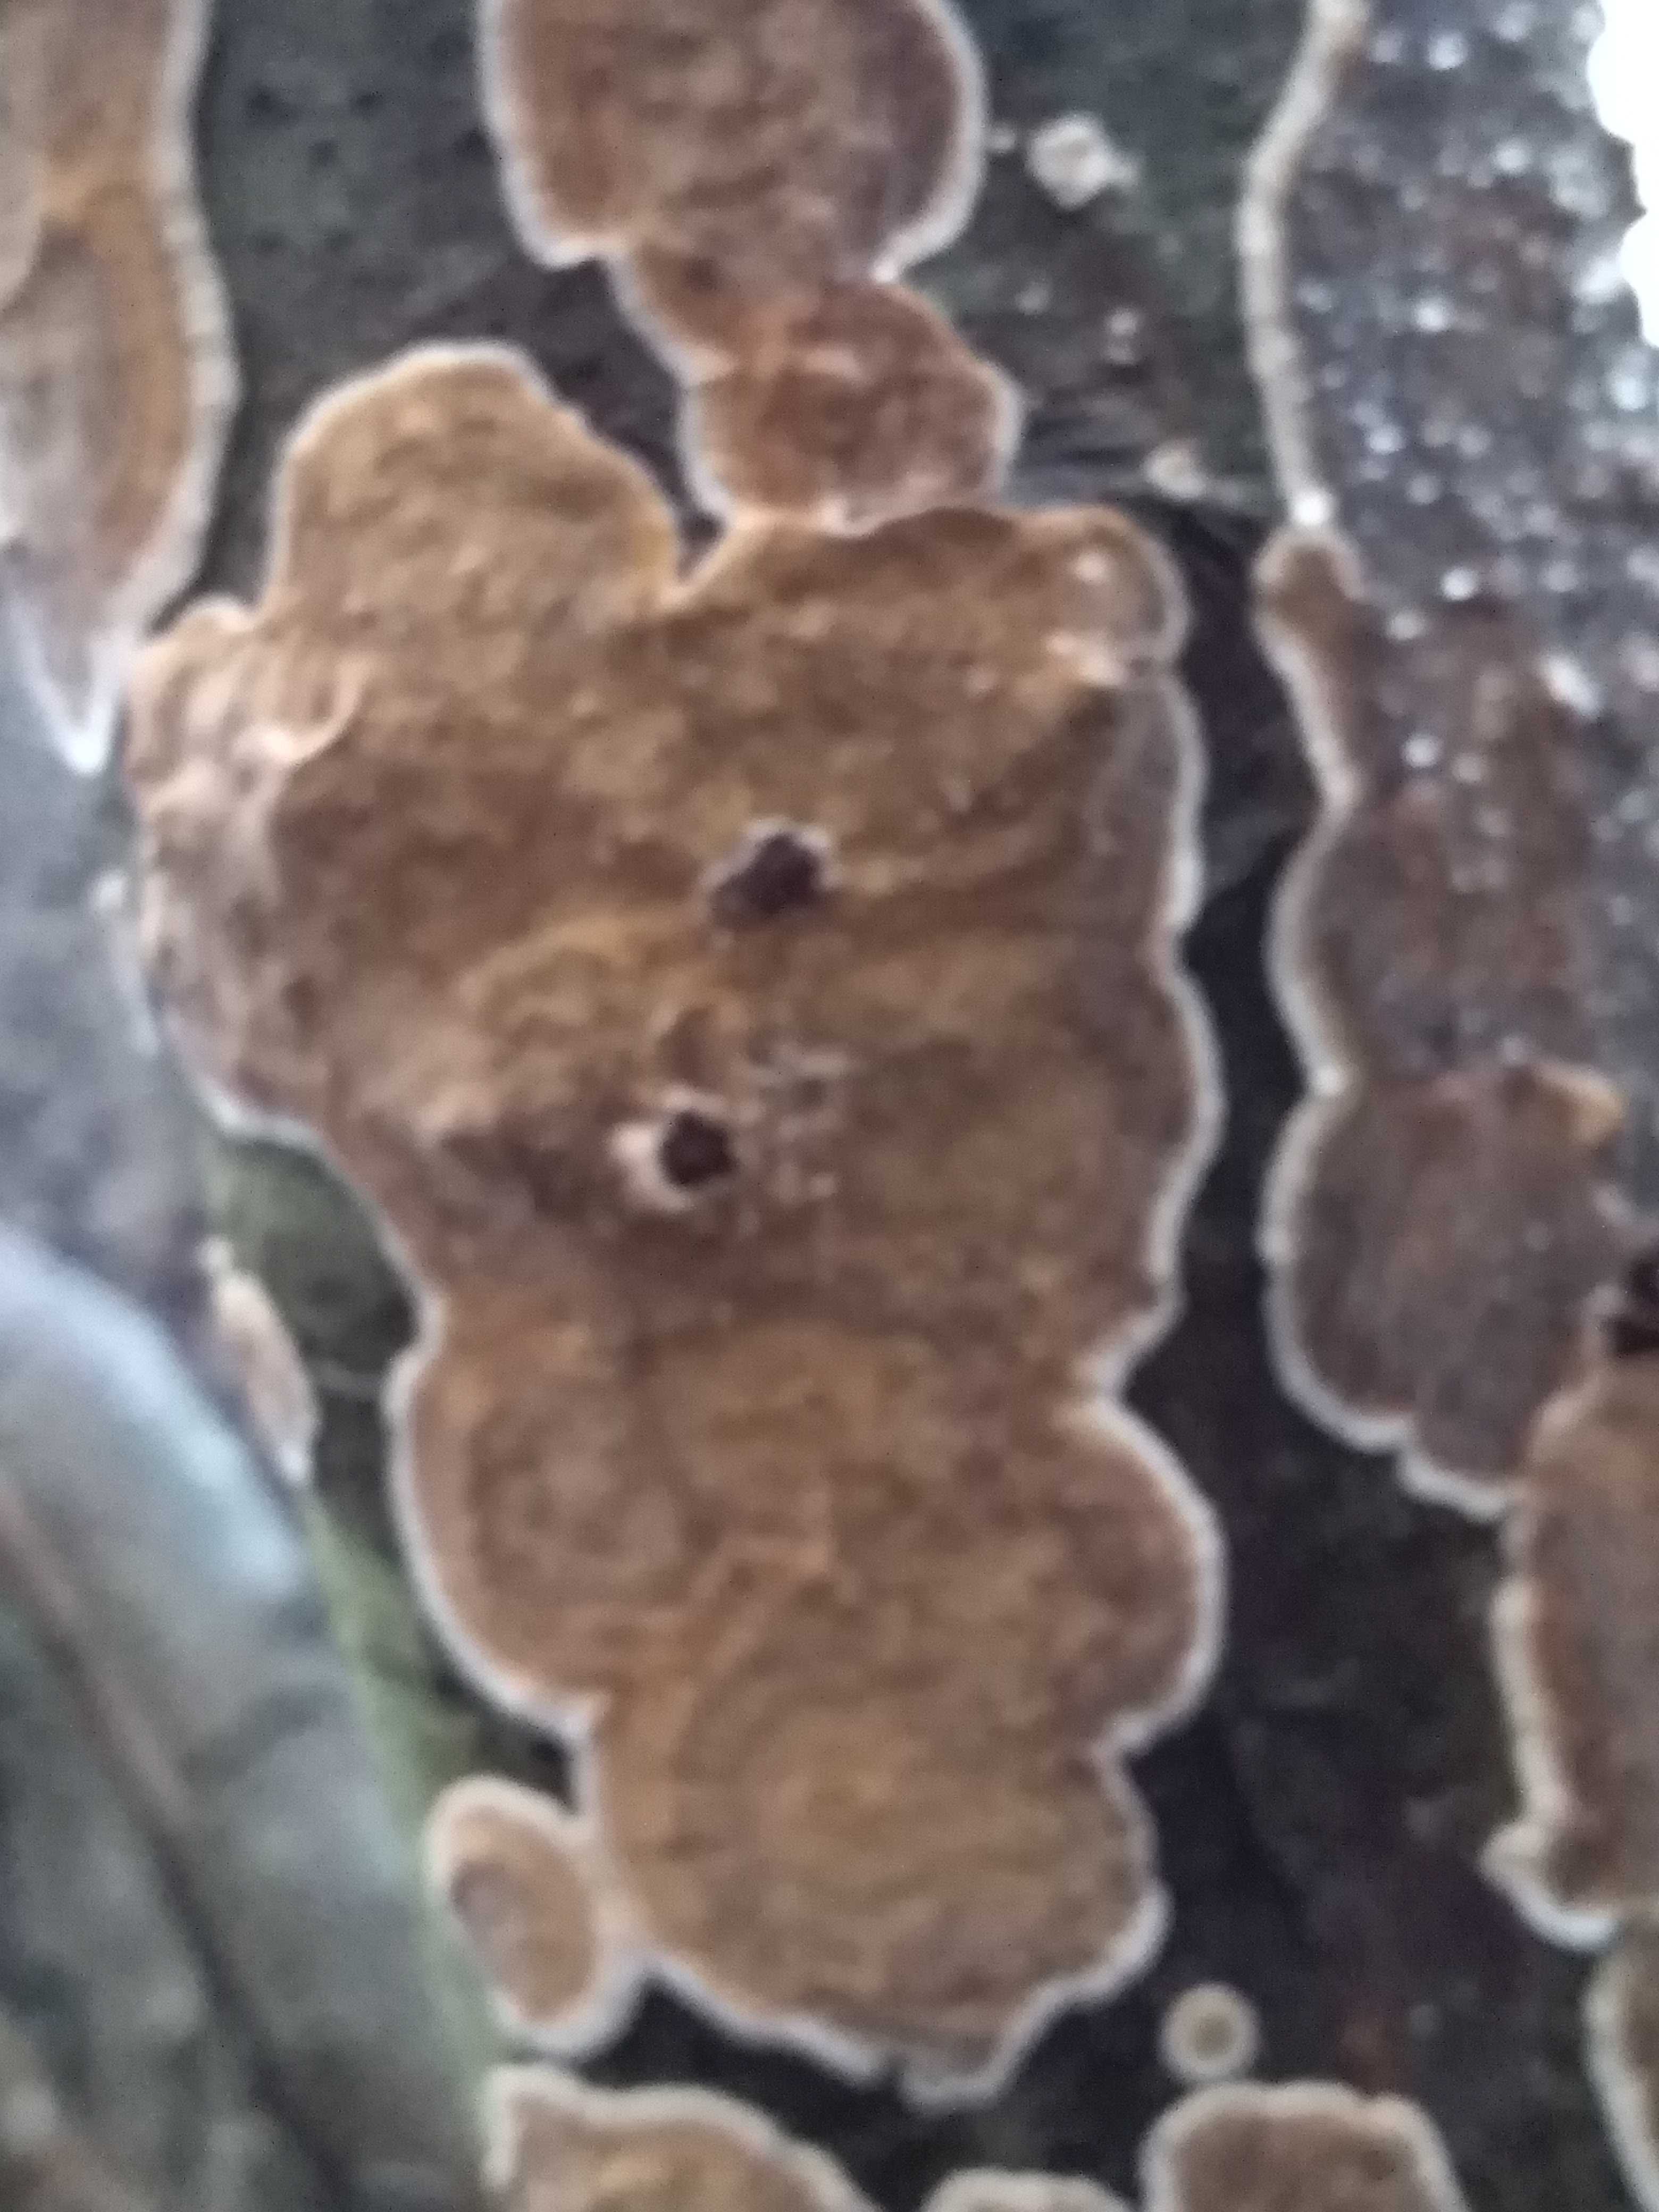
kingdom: Fungi
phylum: Basidiomycota
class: Agaricomycetes
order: Hymenochaetales
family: Hymenochaetaceae
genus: Hydnoporia
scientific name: Hydnoporia tabacina
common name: tobaksbrun ruslædersvamp
